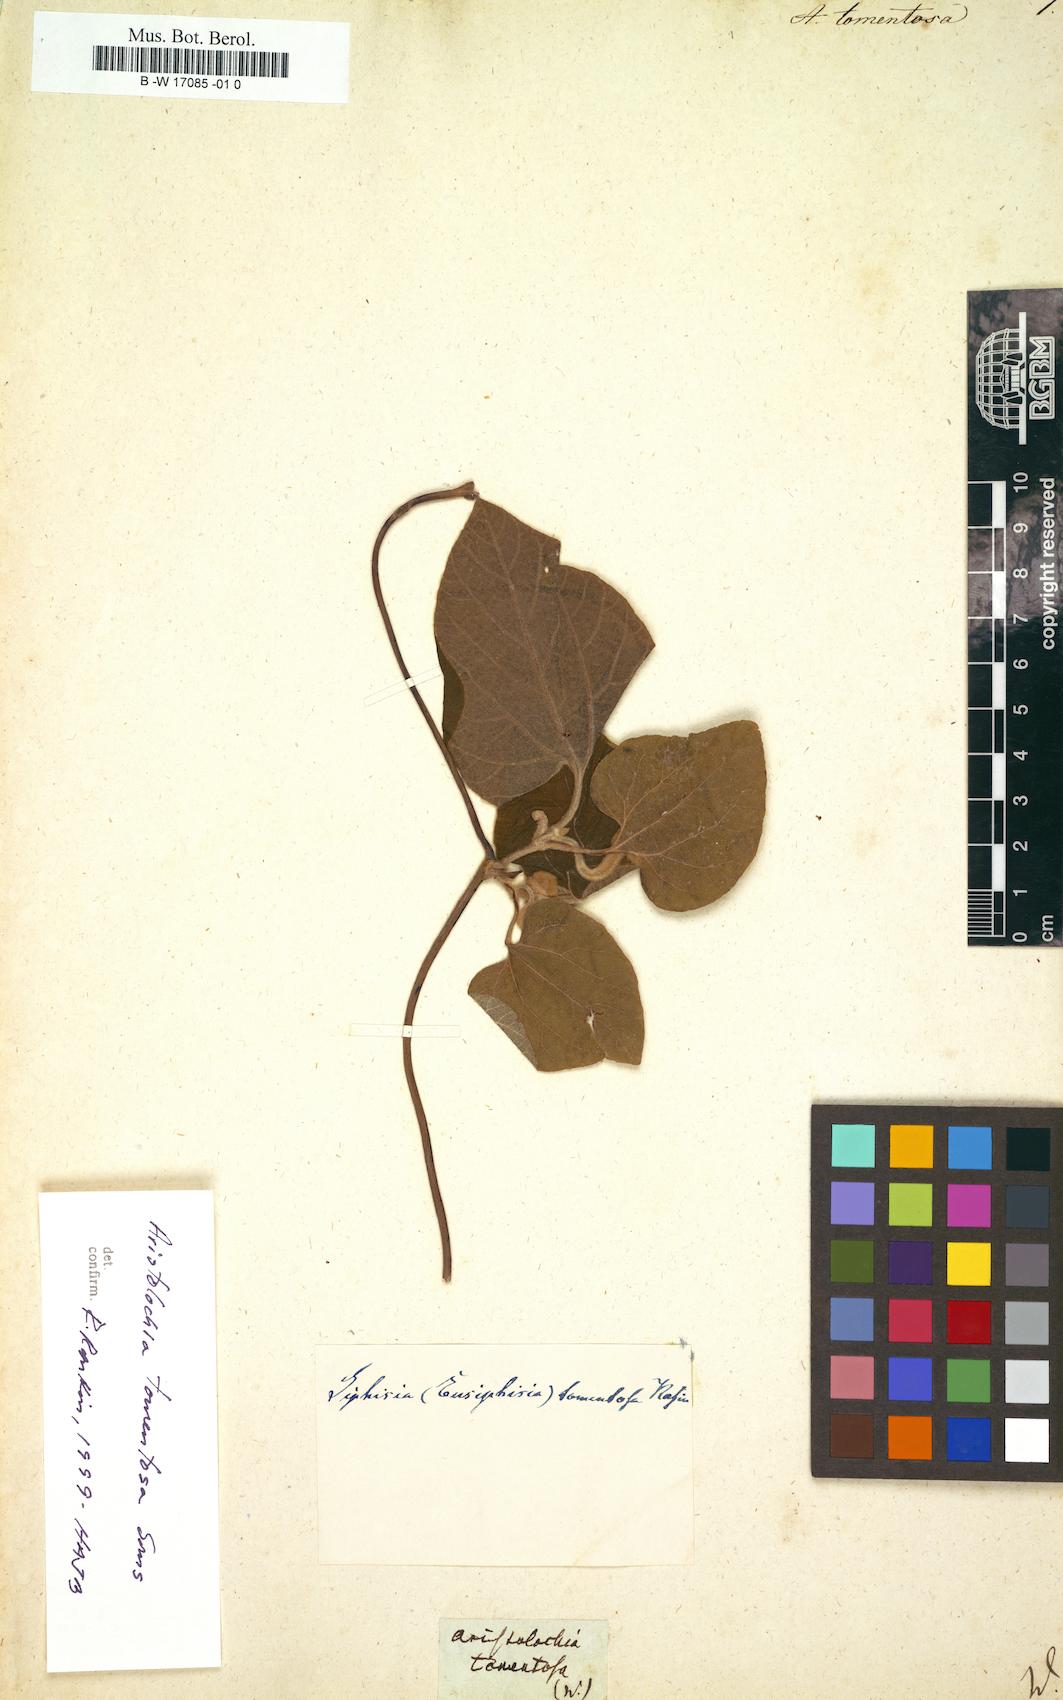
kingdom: Plantae
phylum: Tracheophyta
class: Magnoliopsida
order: Piperales
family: Aristolochiaceae
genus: Isotrema
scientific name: Isotrema tomentosum
